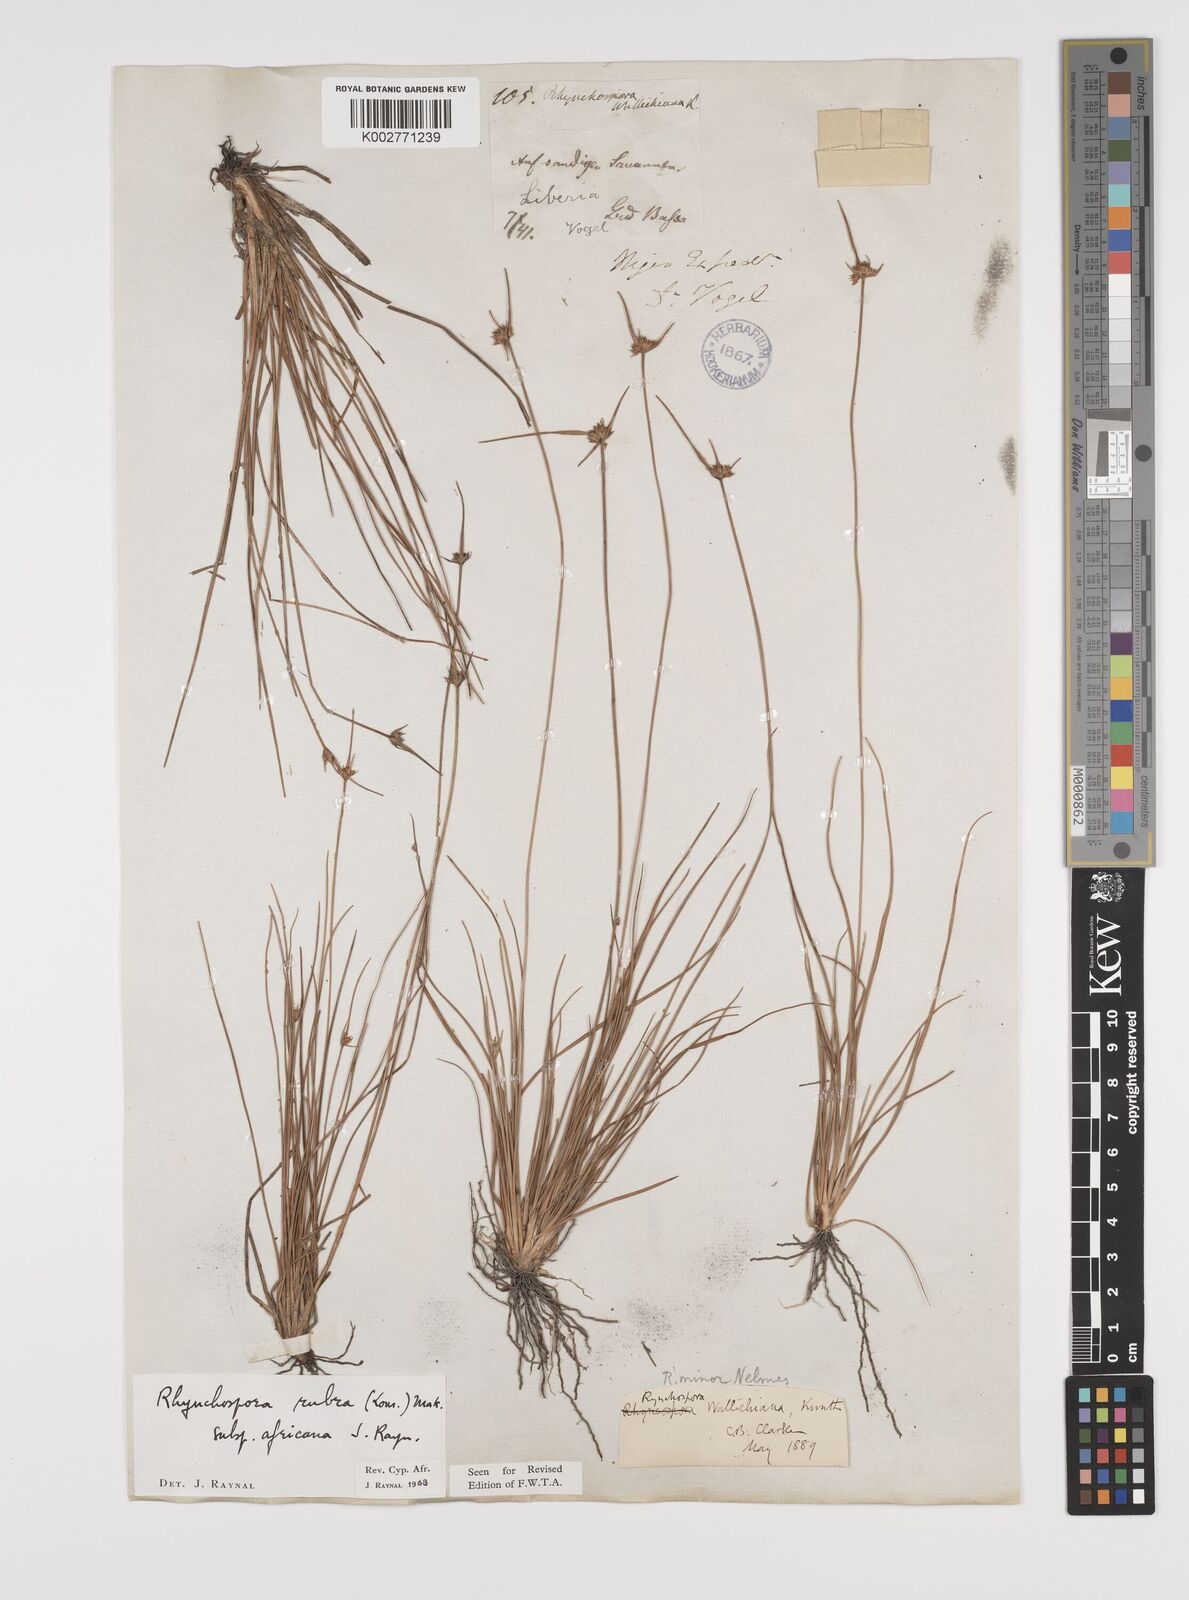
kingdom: Plantae
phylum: Tracheophyta
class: Liliopsida
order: Poales
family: Cyperaceae
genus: Rhynchospora
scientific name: Rhynchospora rubra
